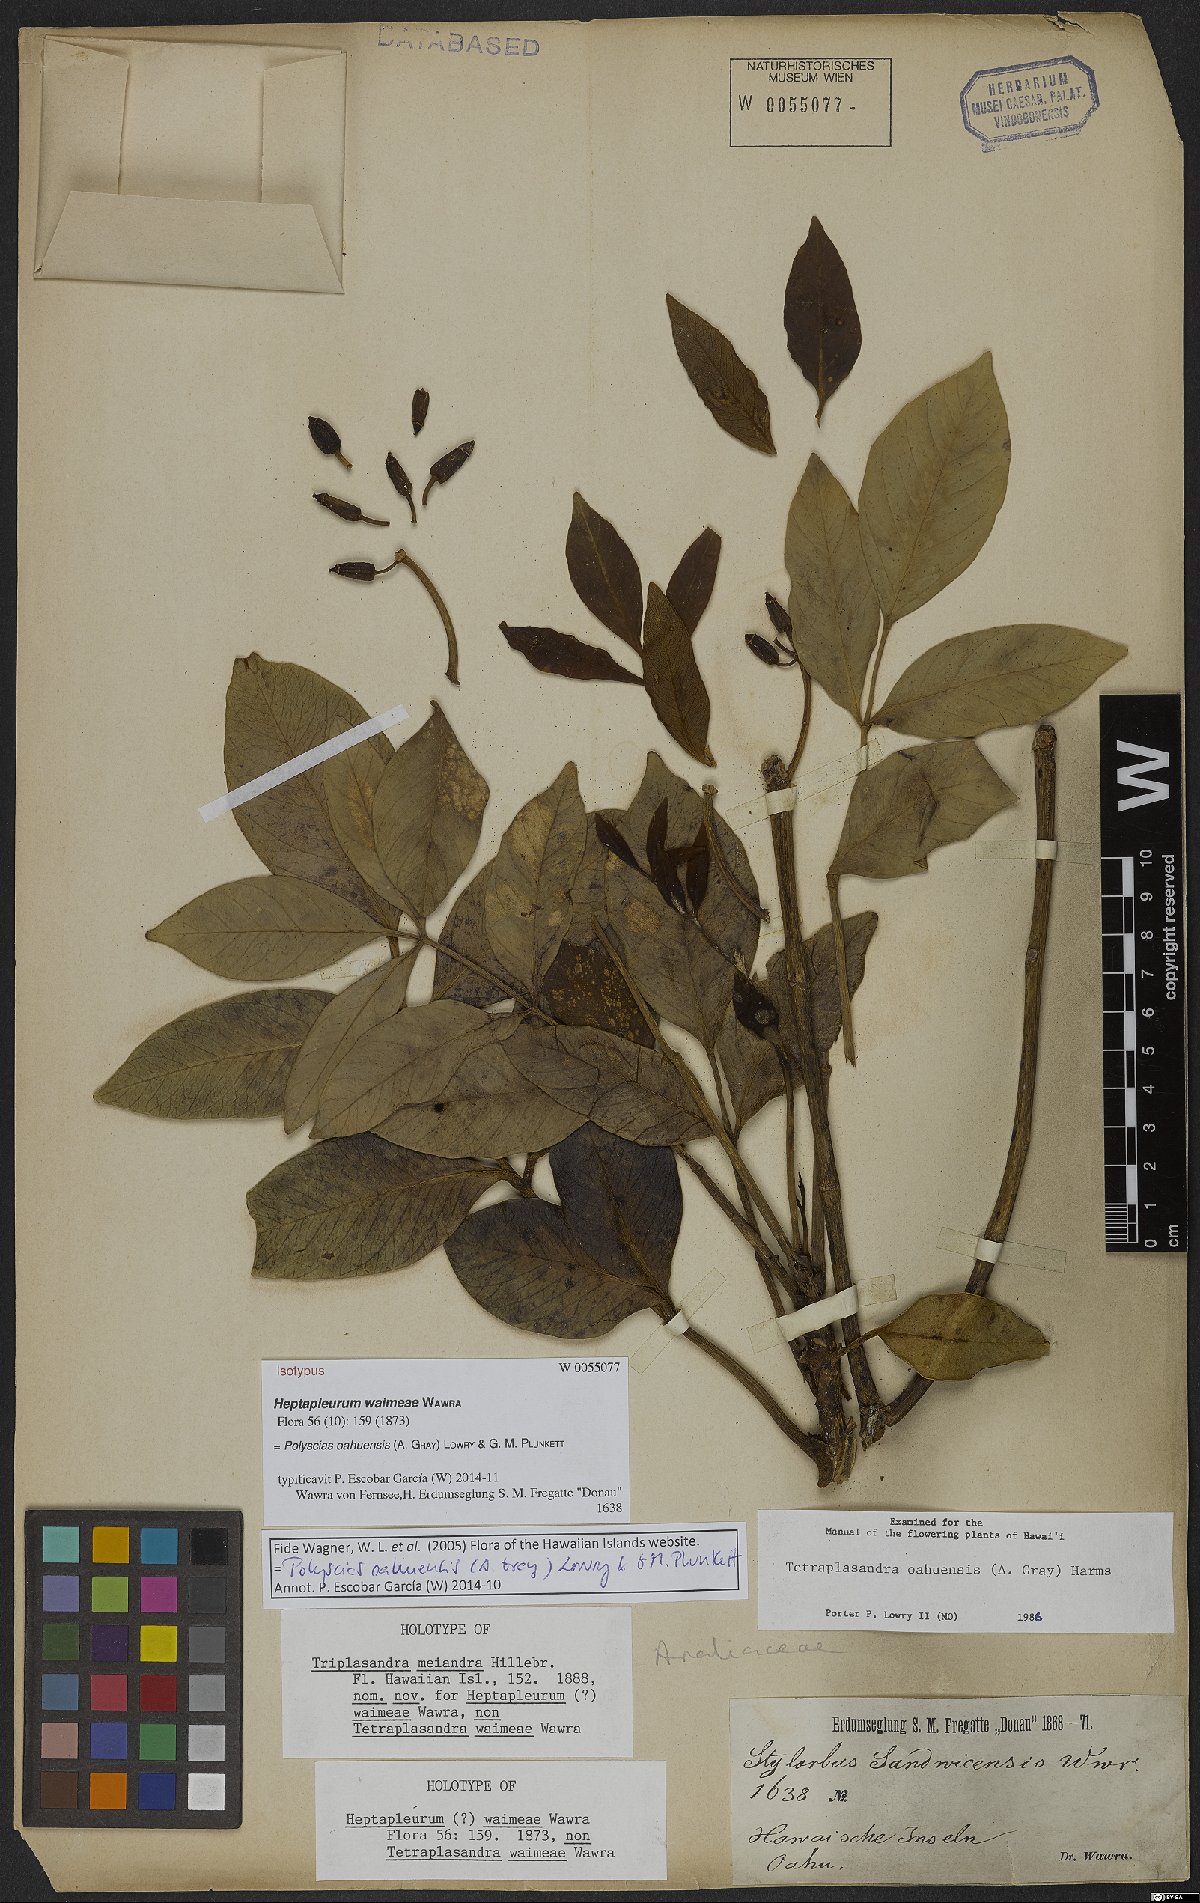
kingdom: Plantae
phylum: Tracheophyta
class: Magnoliopsida
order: Apiales
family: Araliaceae
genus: Polyscias
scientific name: Polyscias oahuensis
